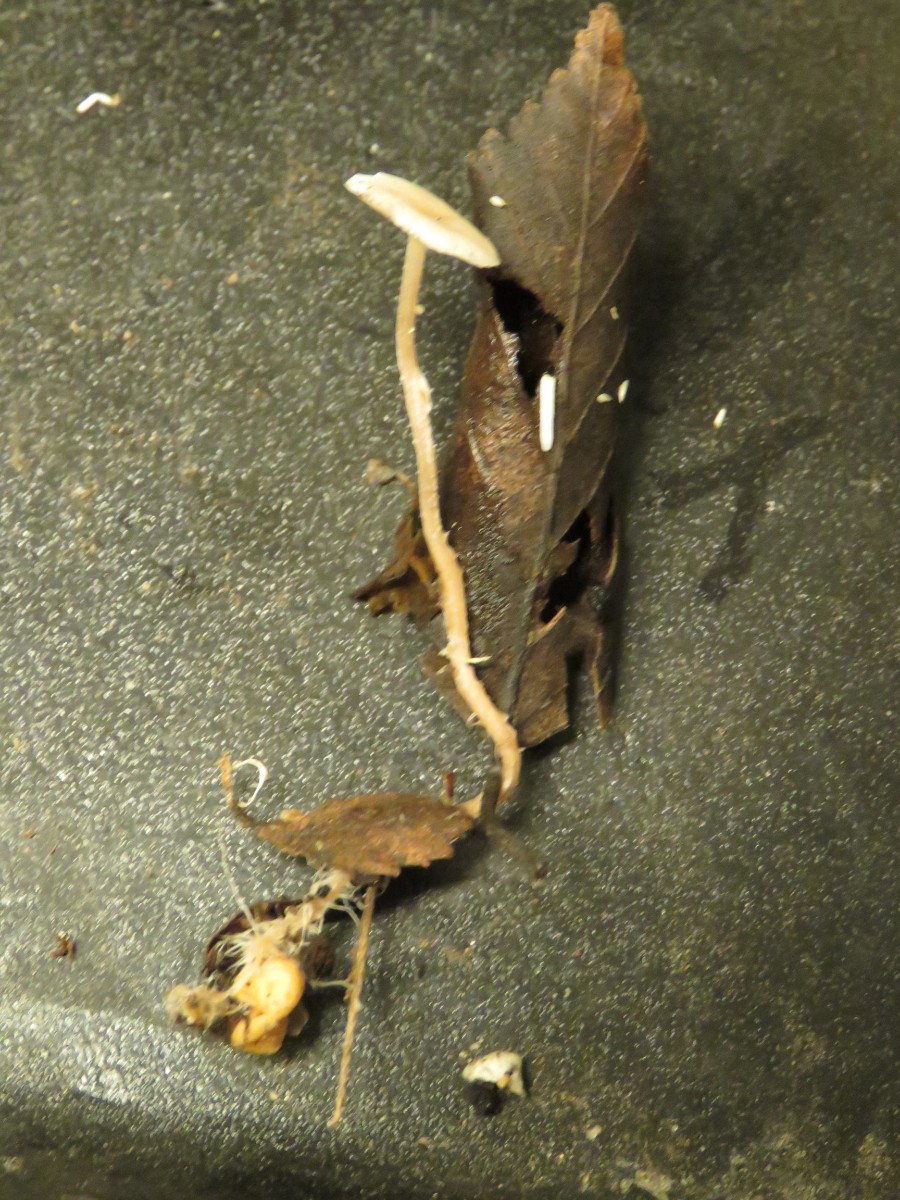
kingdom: Fungi
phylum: Basidiomycota
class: Agaricomycetes
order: Agaricales
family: Tricholomataceae
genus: Collybia
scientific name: Collybia cookei
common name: gulknoldet lighat
